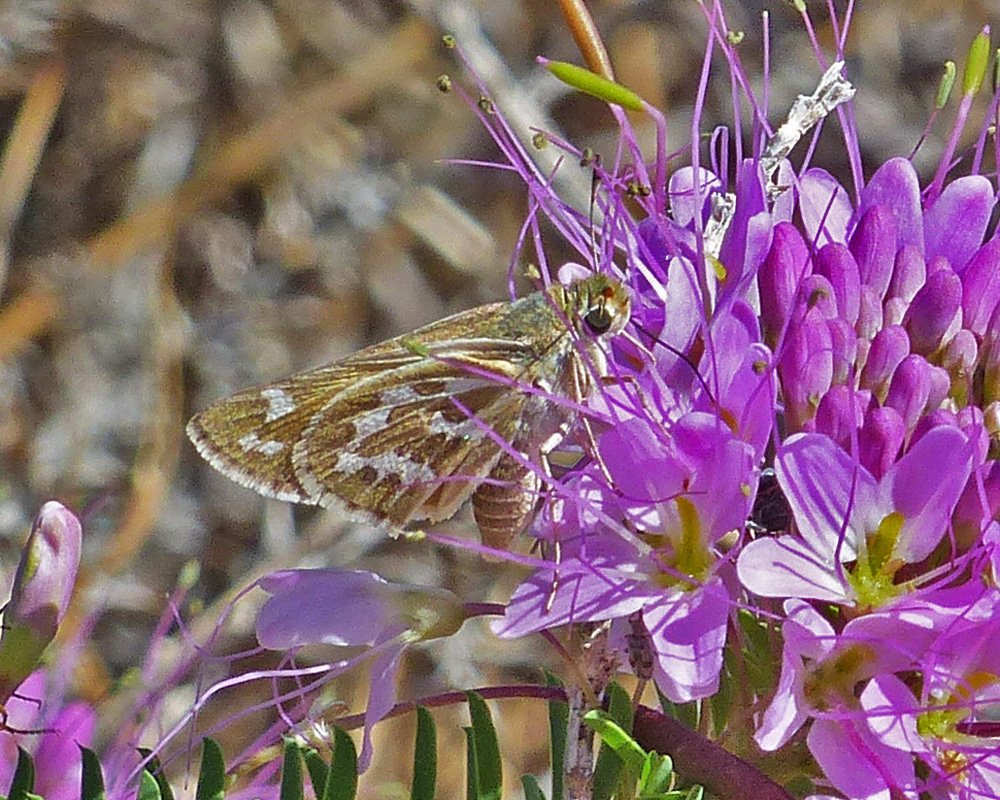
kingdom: Animalia
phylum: Arthropoda
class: Insecta
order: Lepidoptera
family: Hesperiidae
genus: Hesperia
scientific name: Hesperia uncas
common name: Uncas Skipper
